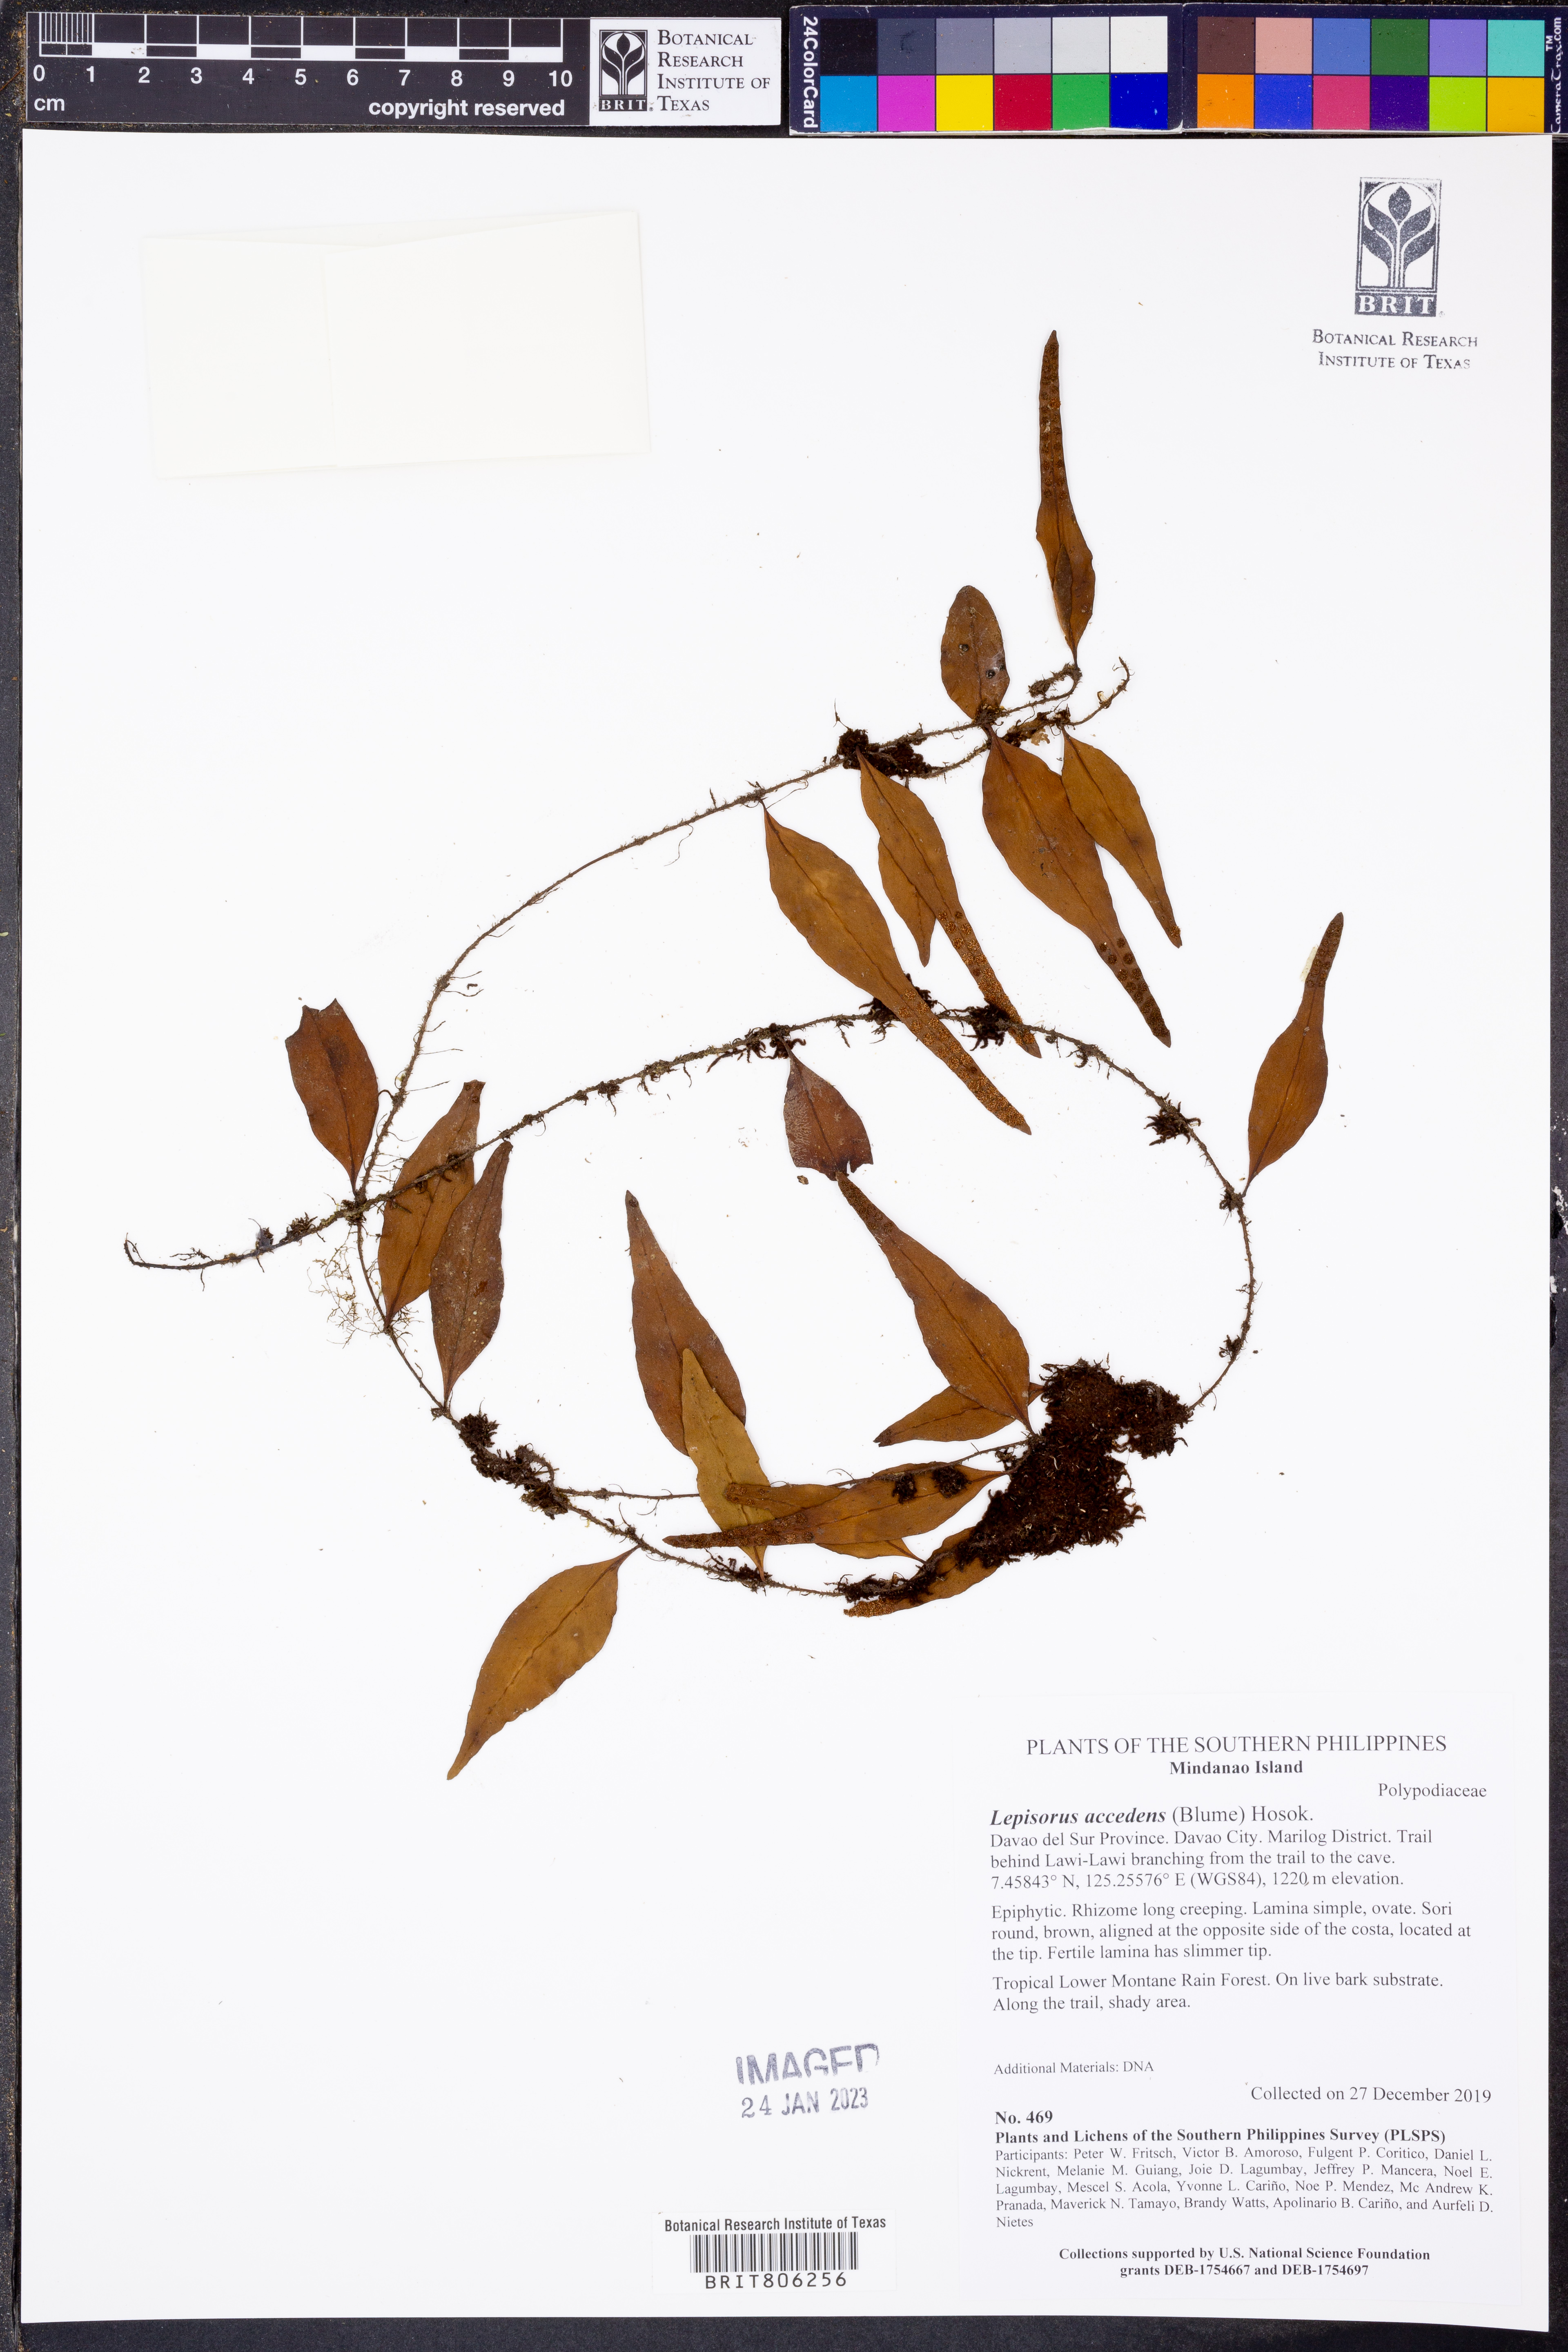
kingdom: Plantae
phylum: Tracheophyta
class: Polypodiopsida
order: Polypodiales
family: Polypodiaceae
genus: Lepisorus
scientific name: Lepisorus accedens
